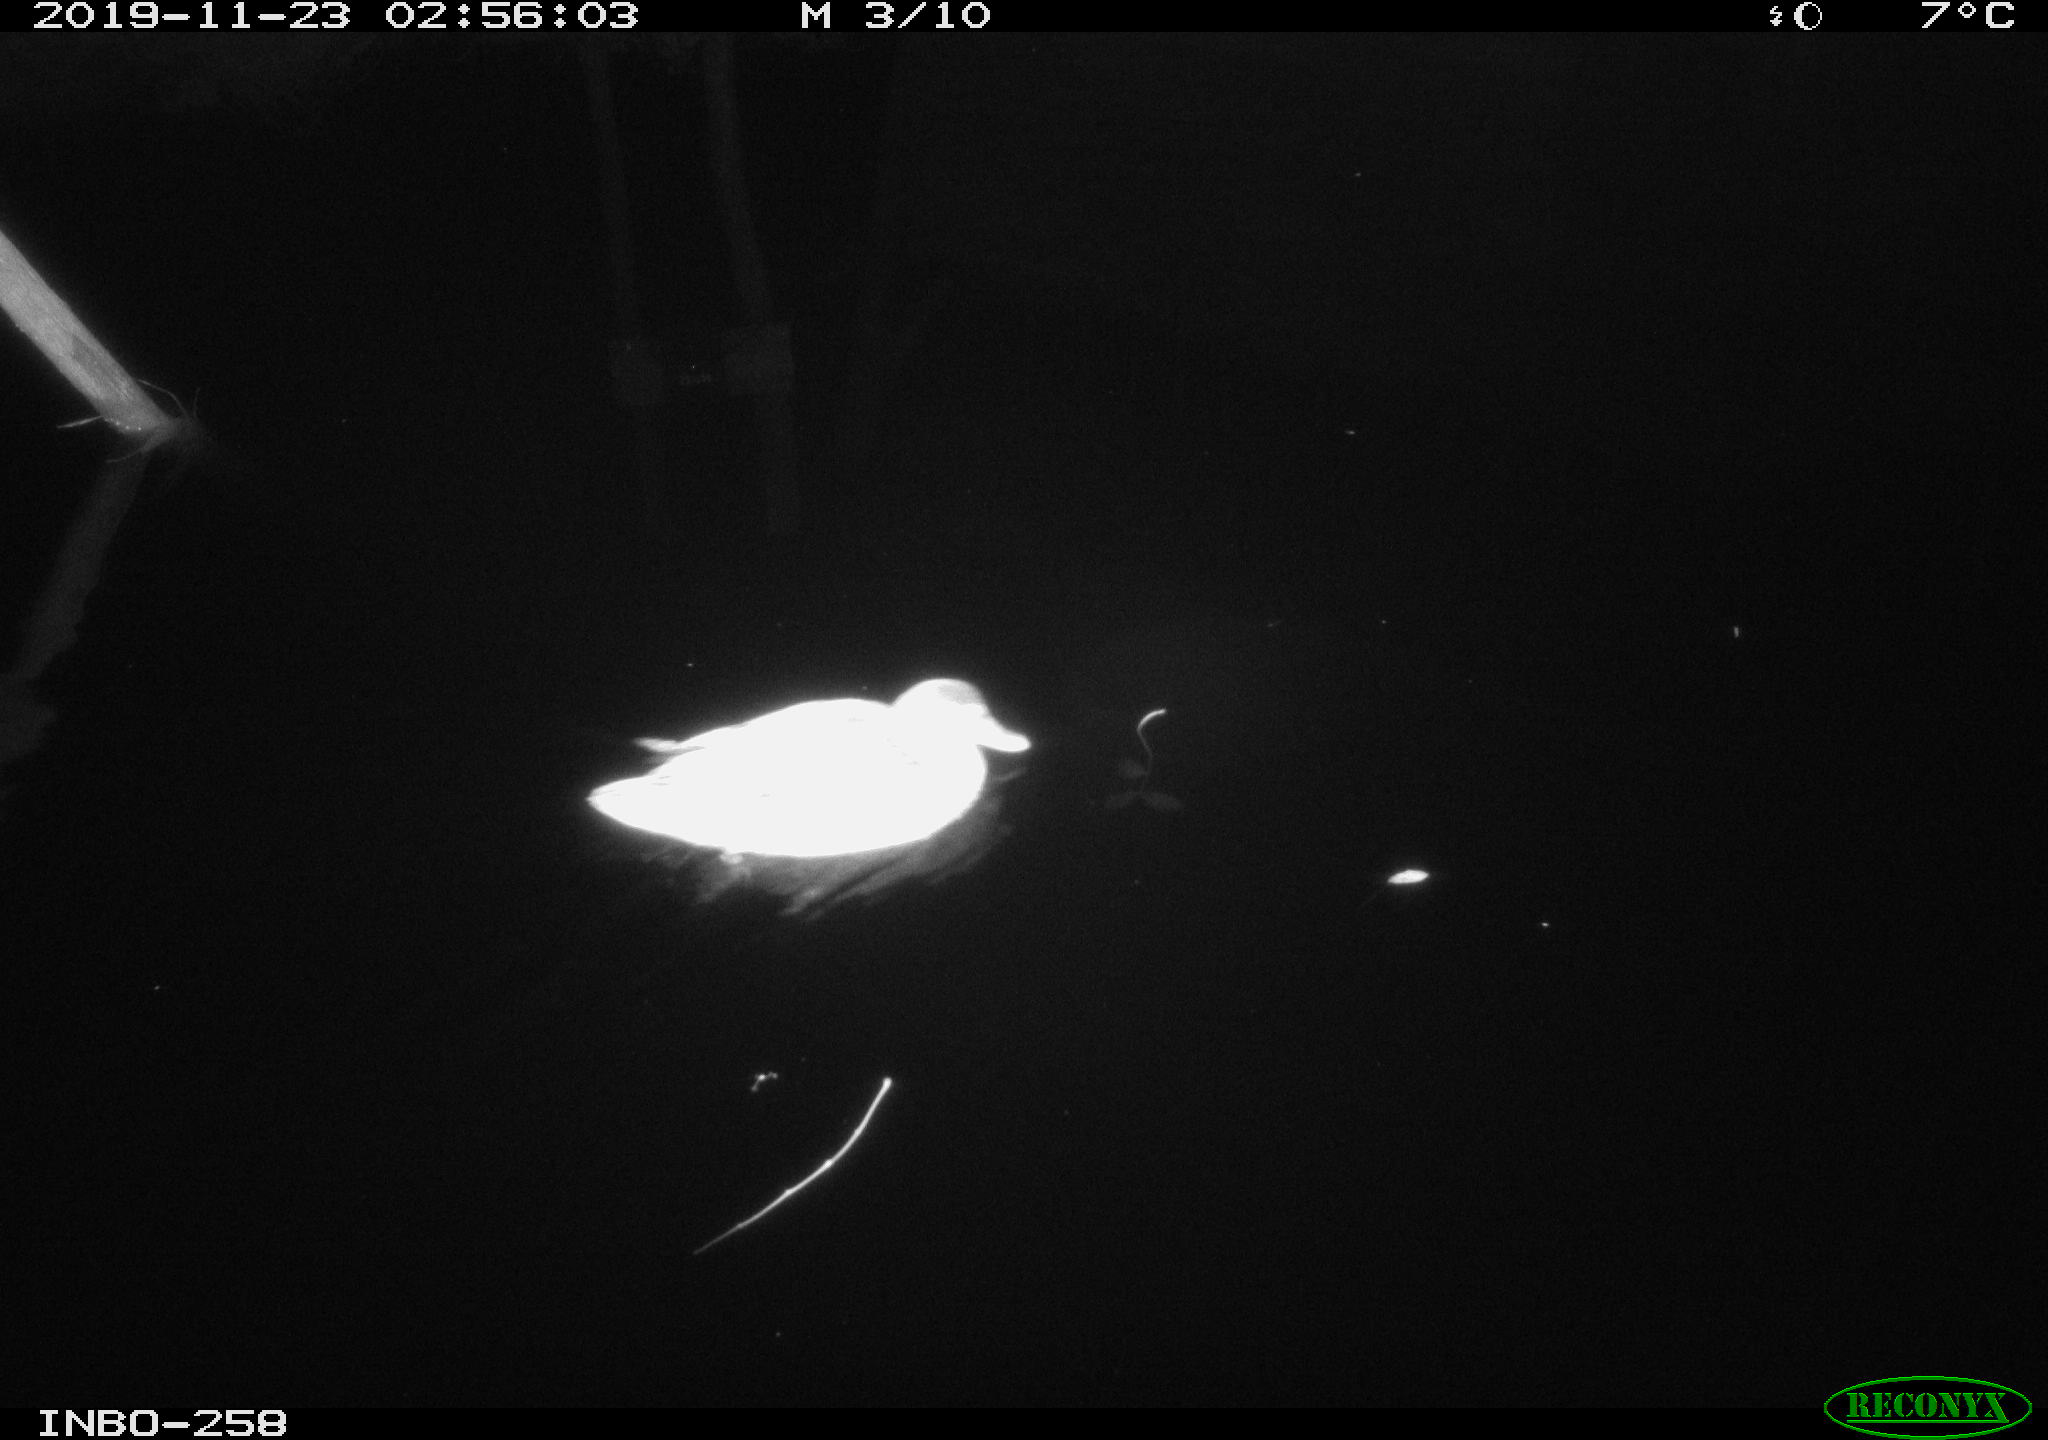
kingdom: Animalia
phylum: Chordata
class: Aves
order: Anseriformes
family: Anatidae
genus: Anas
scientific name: Anas platyrhynchos
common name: Mallard
